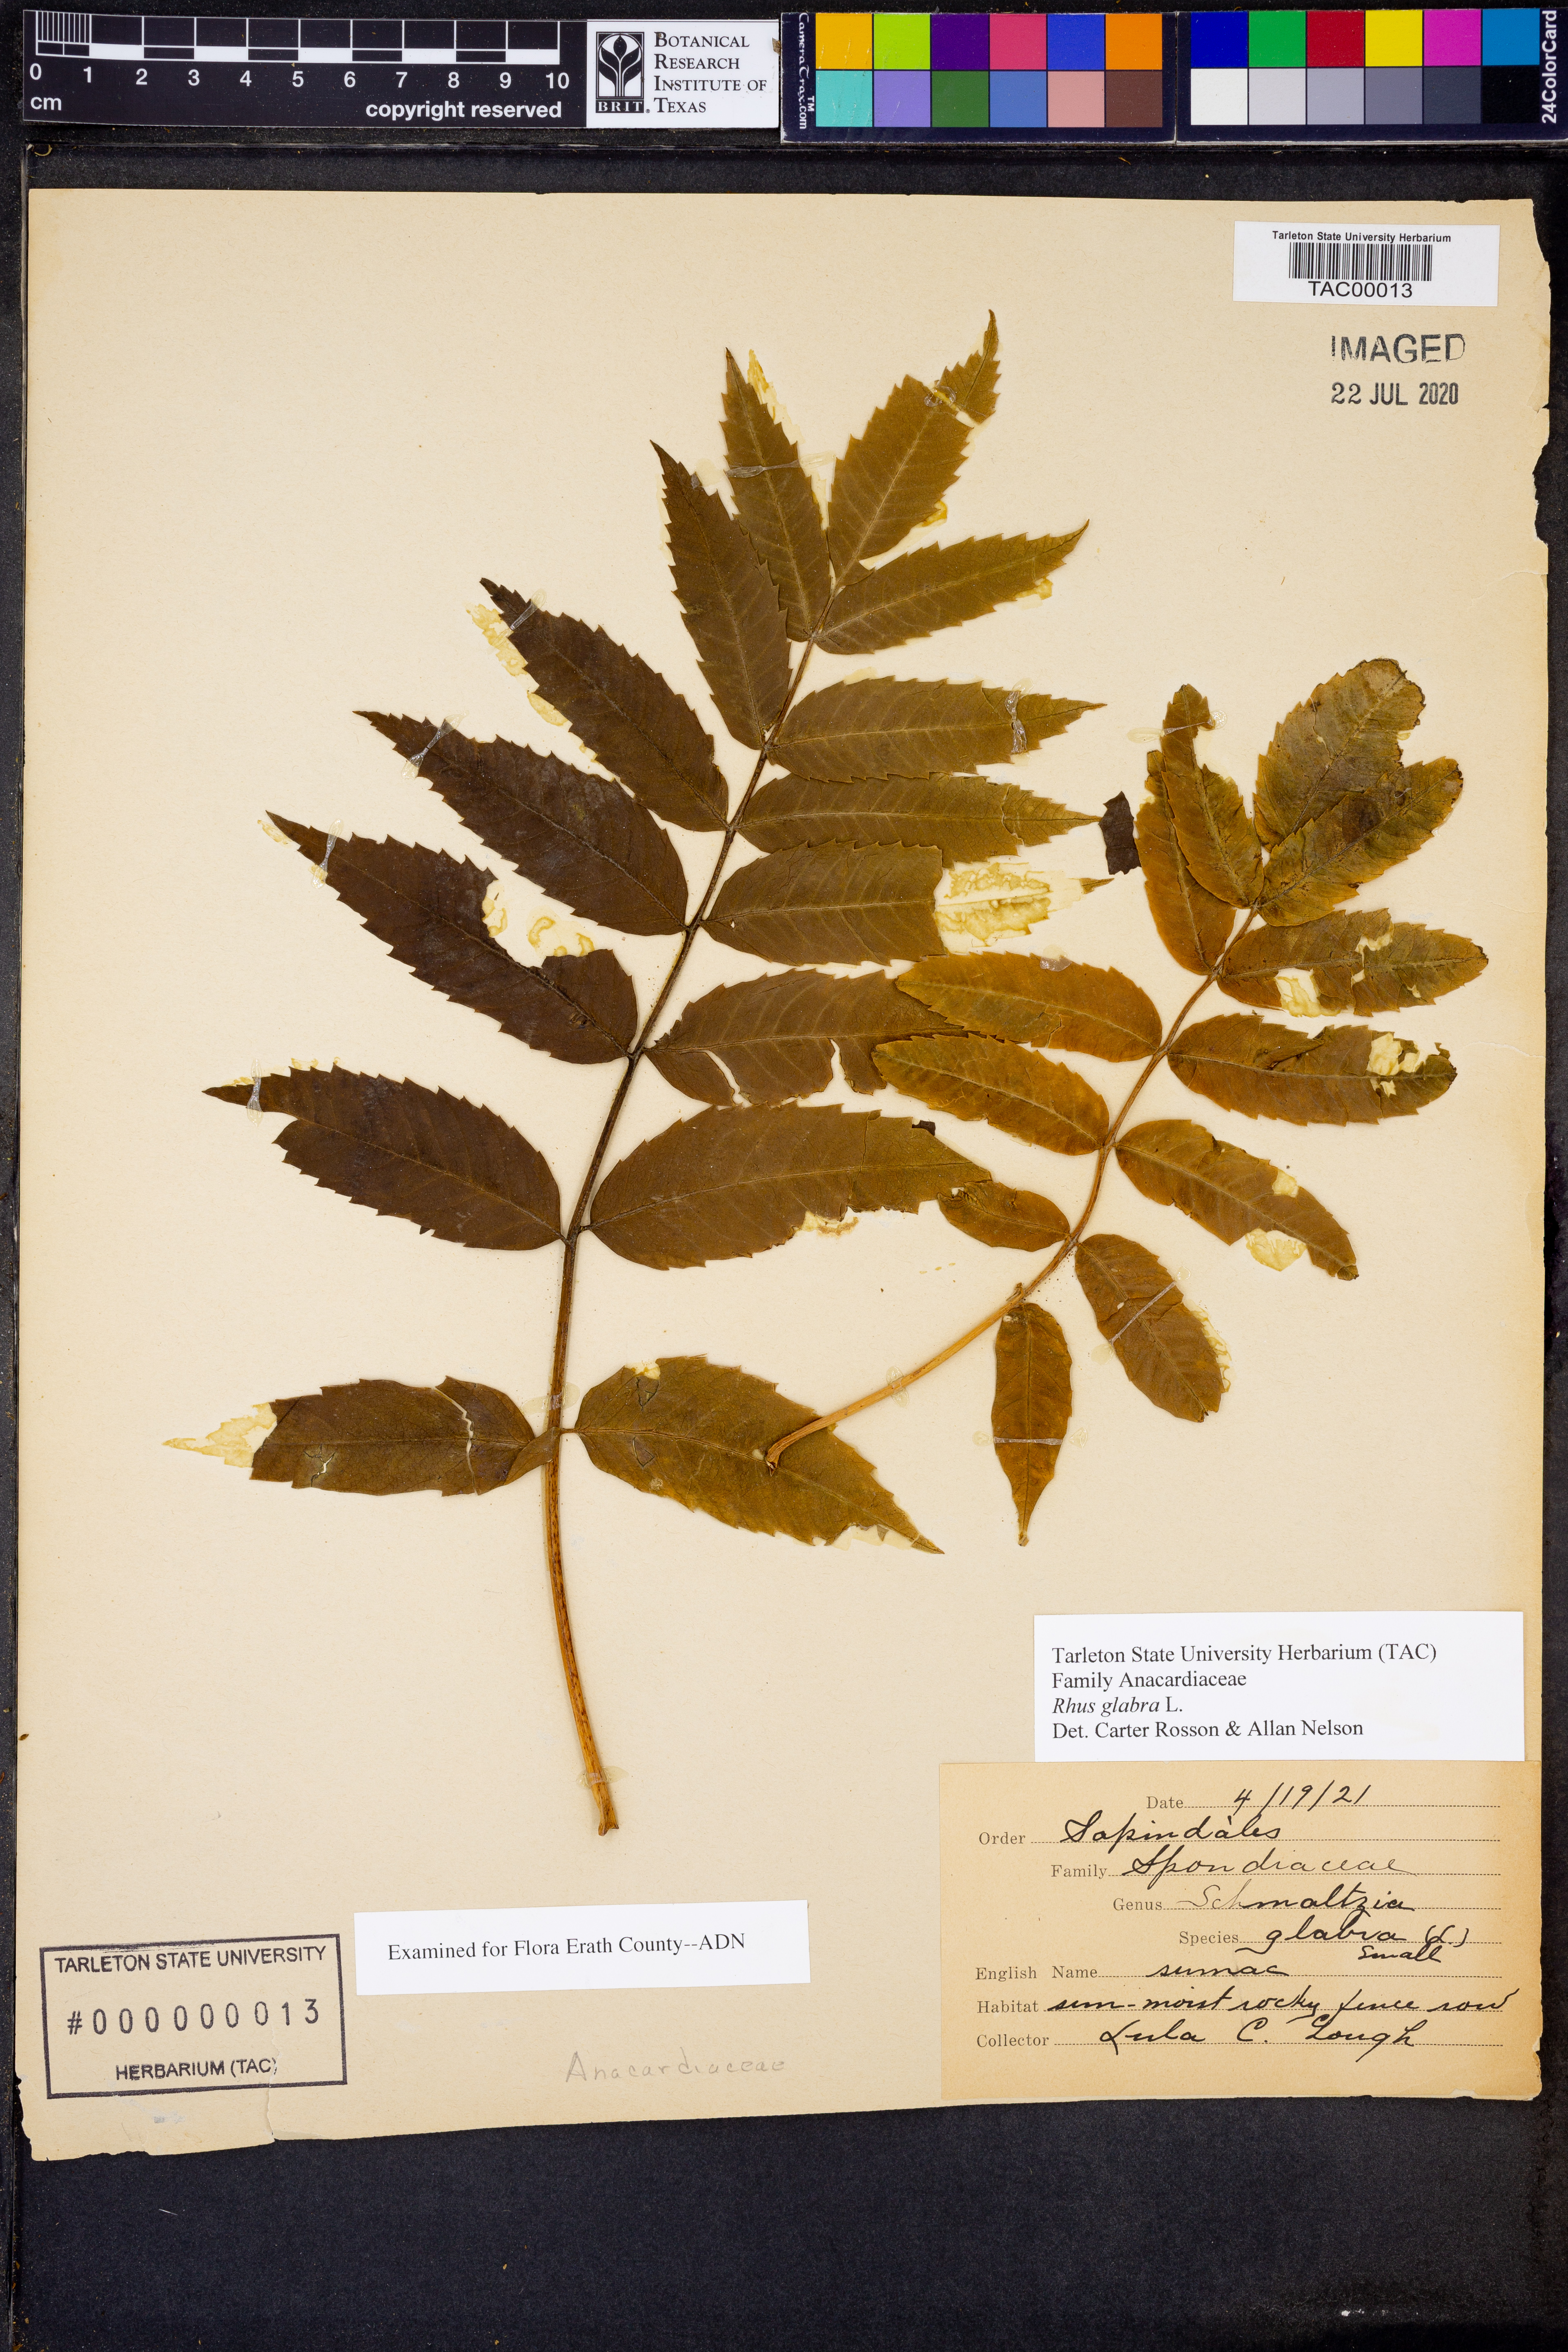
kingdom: Plantae
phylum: Tracheophyta
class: Magnoliopsida
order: Sapindales
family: Anacardiaceae
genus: Rhus
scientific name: Rhus glabra
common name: Scarlet sumac
